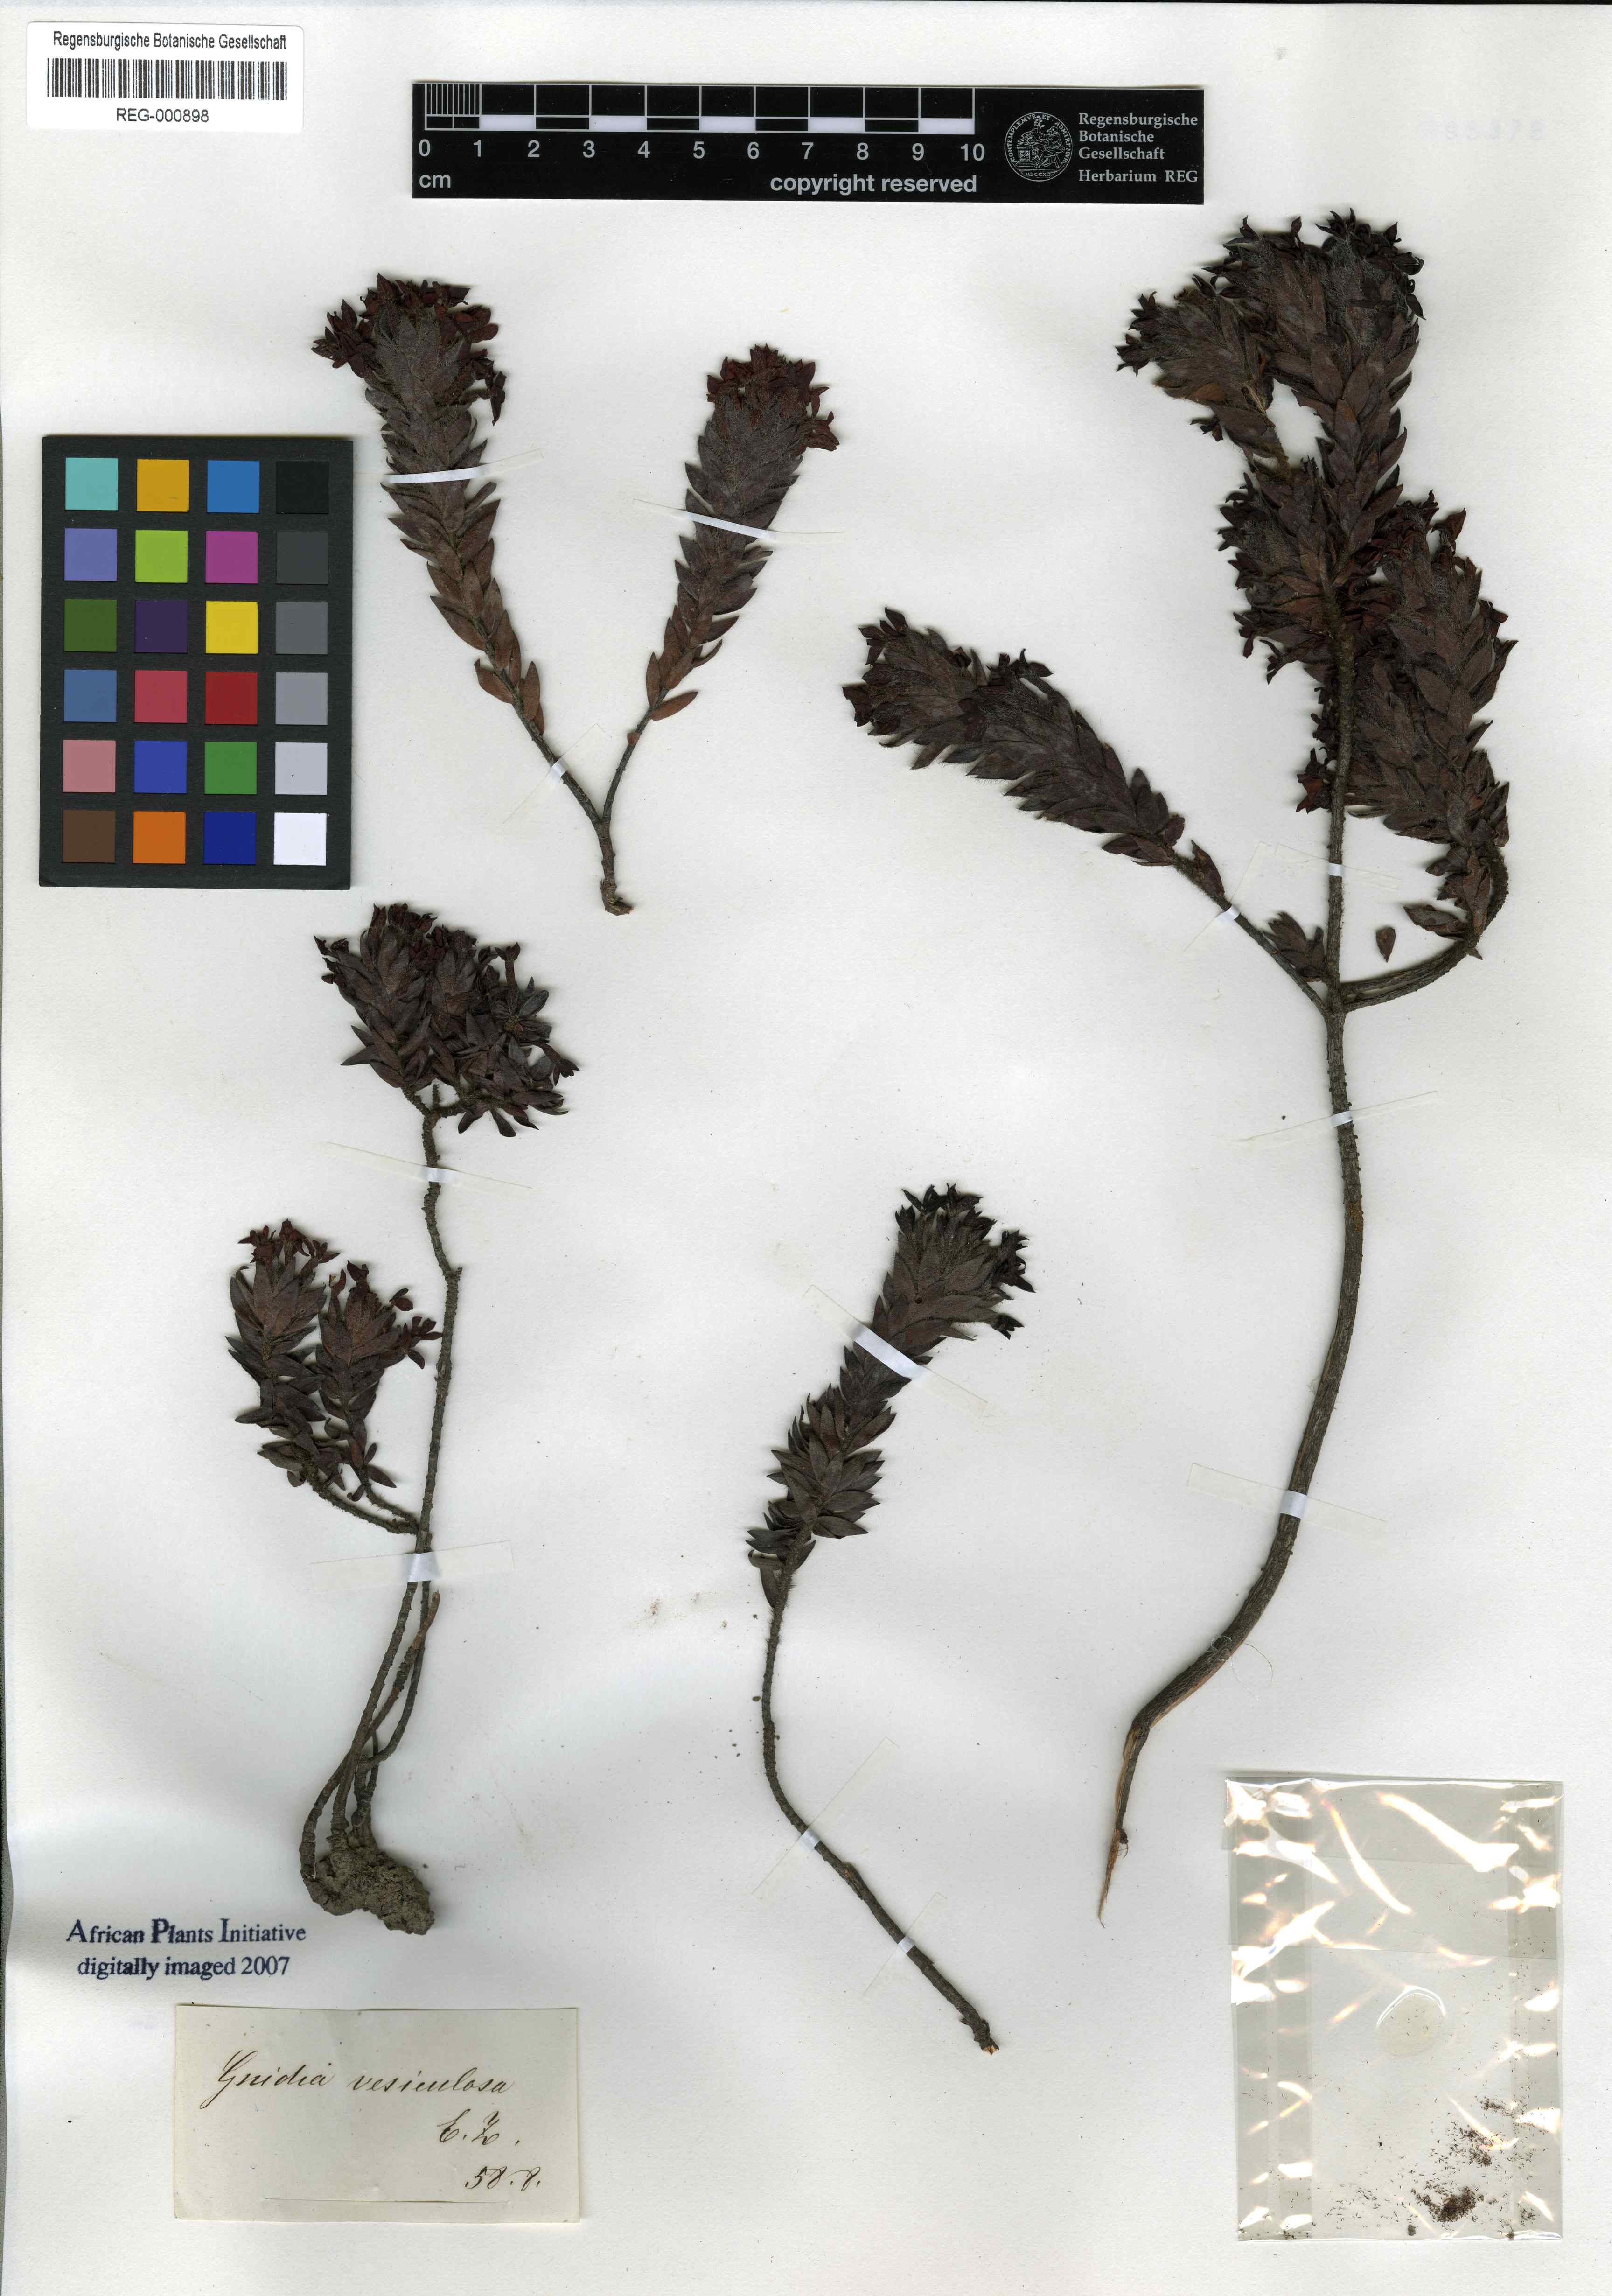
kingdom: Plantae
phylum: Tracheophyta
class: Magnoliopsida
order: Malvales
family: Thymelaeaceae
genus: Gnidia
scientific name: Gnidia ornata
